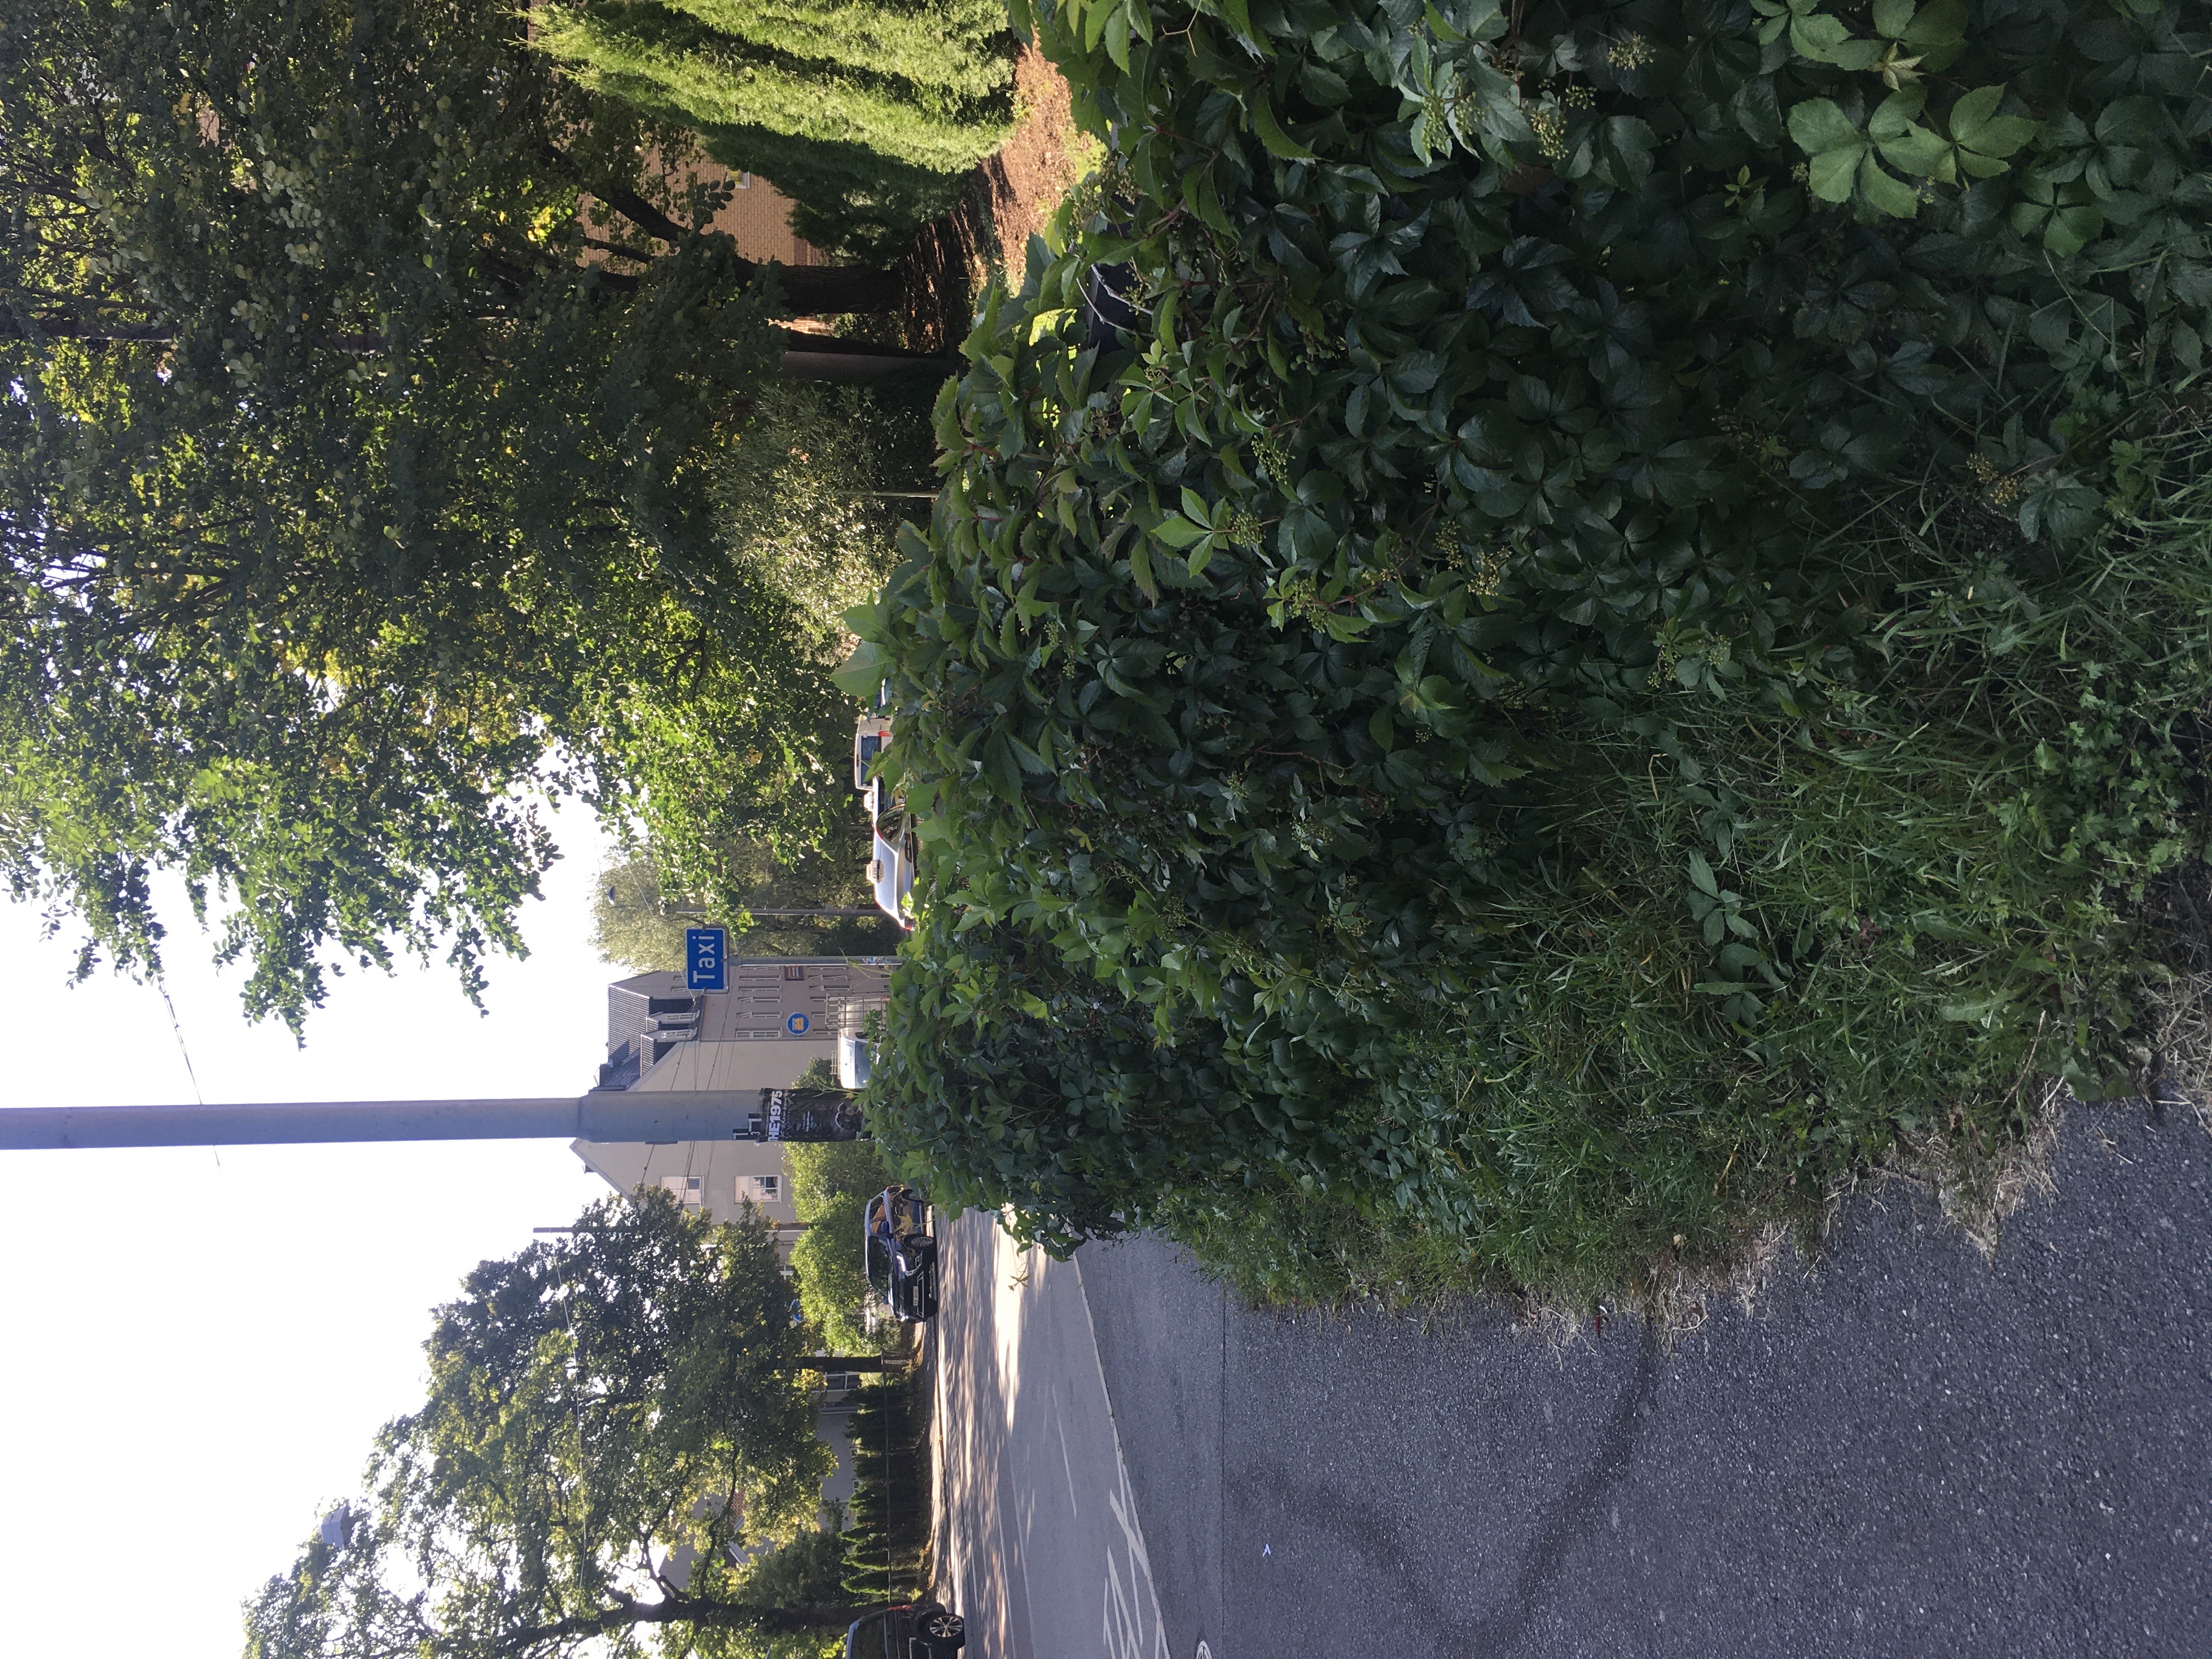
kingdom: Plantae
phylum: Tracheophyta
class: Magnoliopsida
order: Vitales
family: Vitaceae
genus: Parthenocissus
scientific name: Parthenocissus quinquefolia
